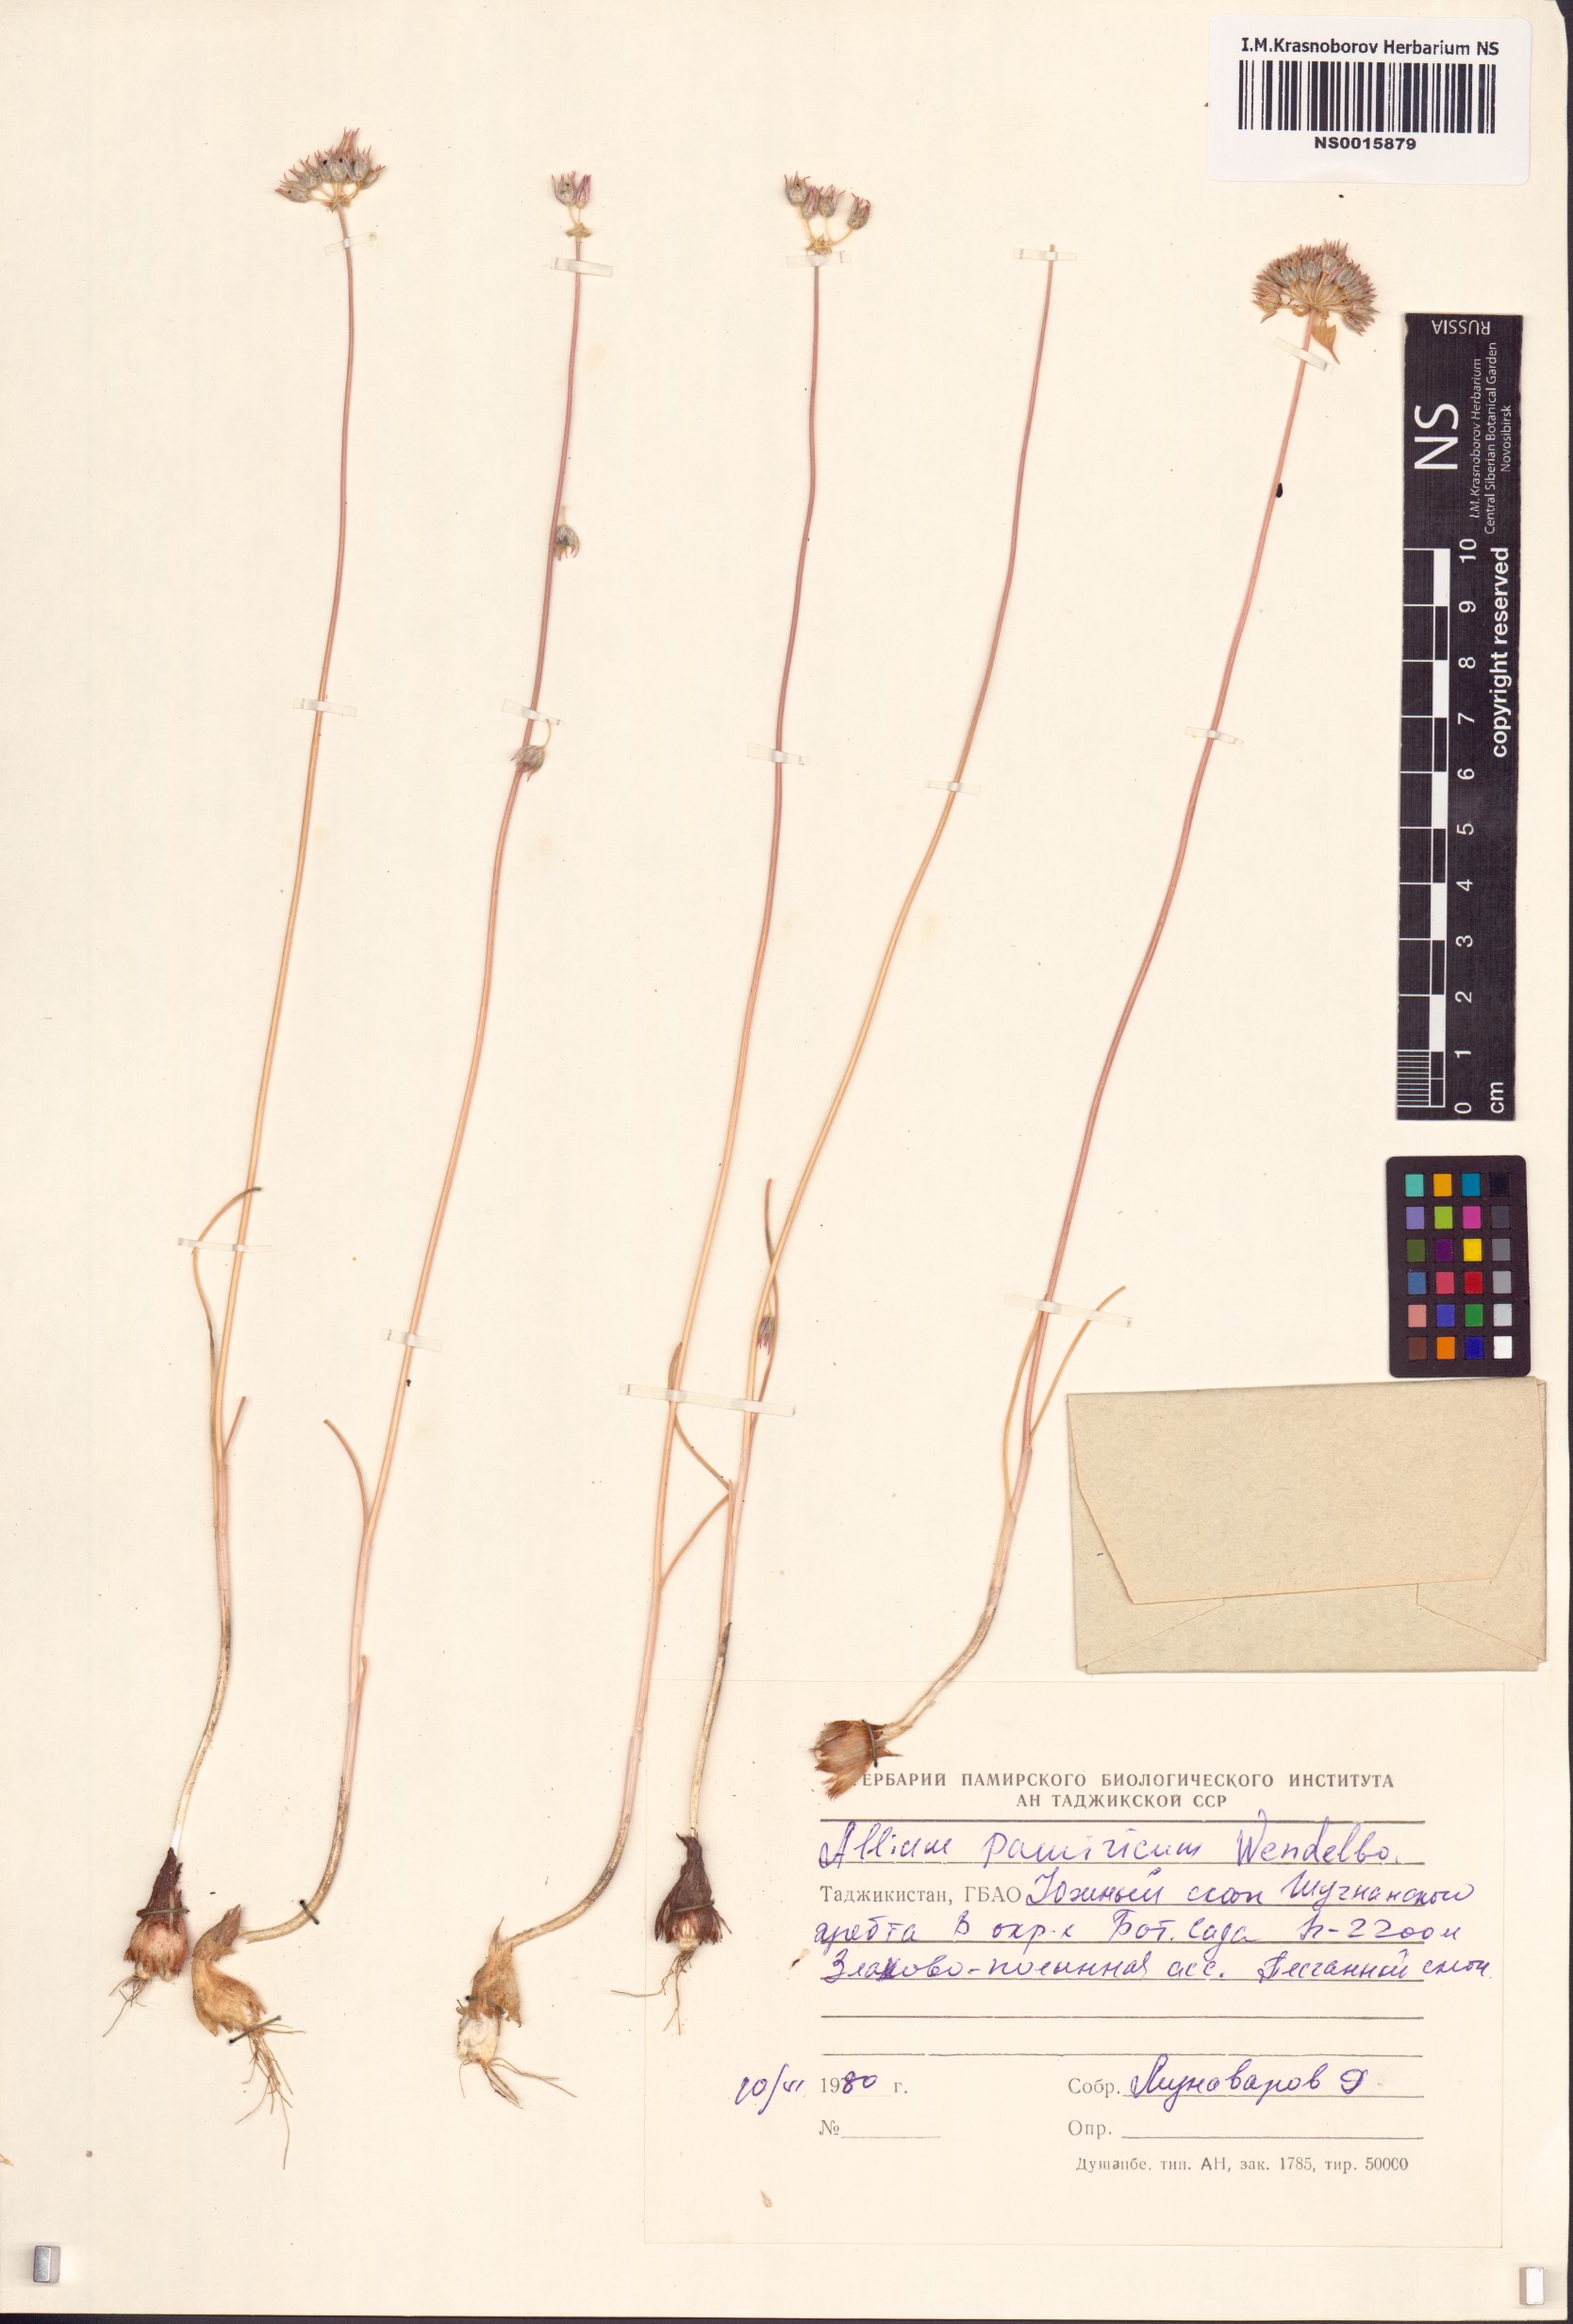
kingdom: Plantae
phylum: Tracheophyta
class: Liliopsida
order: Asparagales
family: Amaryllidaceae
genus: Allium
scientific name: Allium pamiricum
